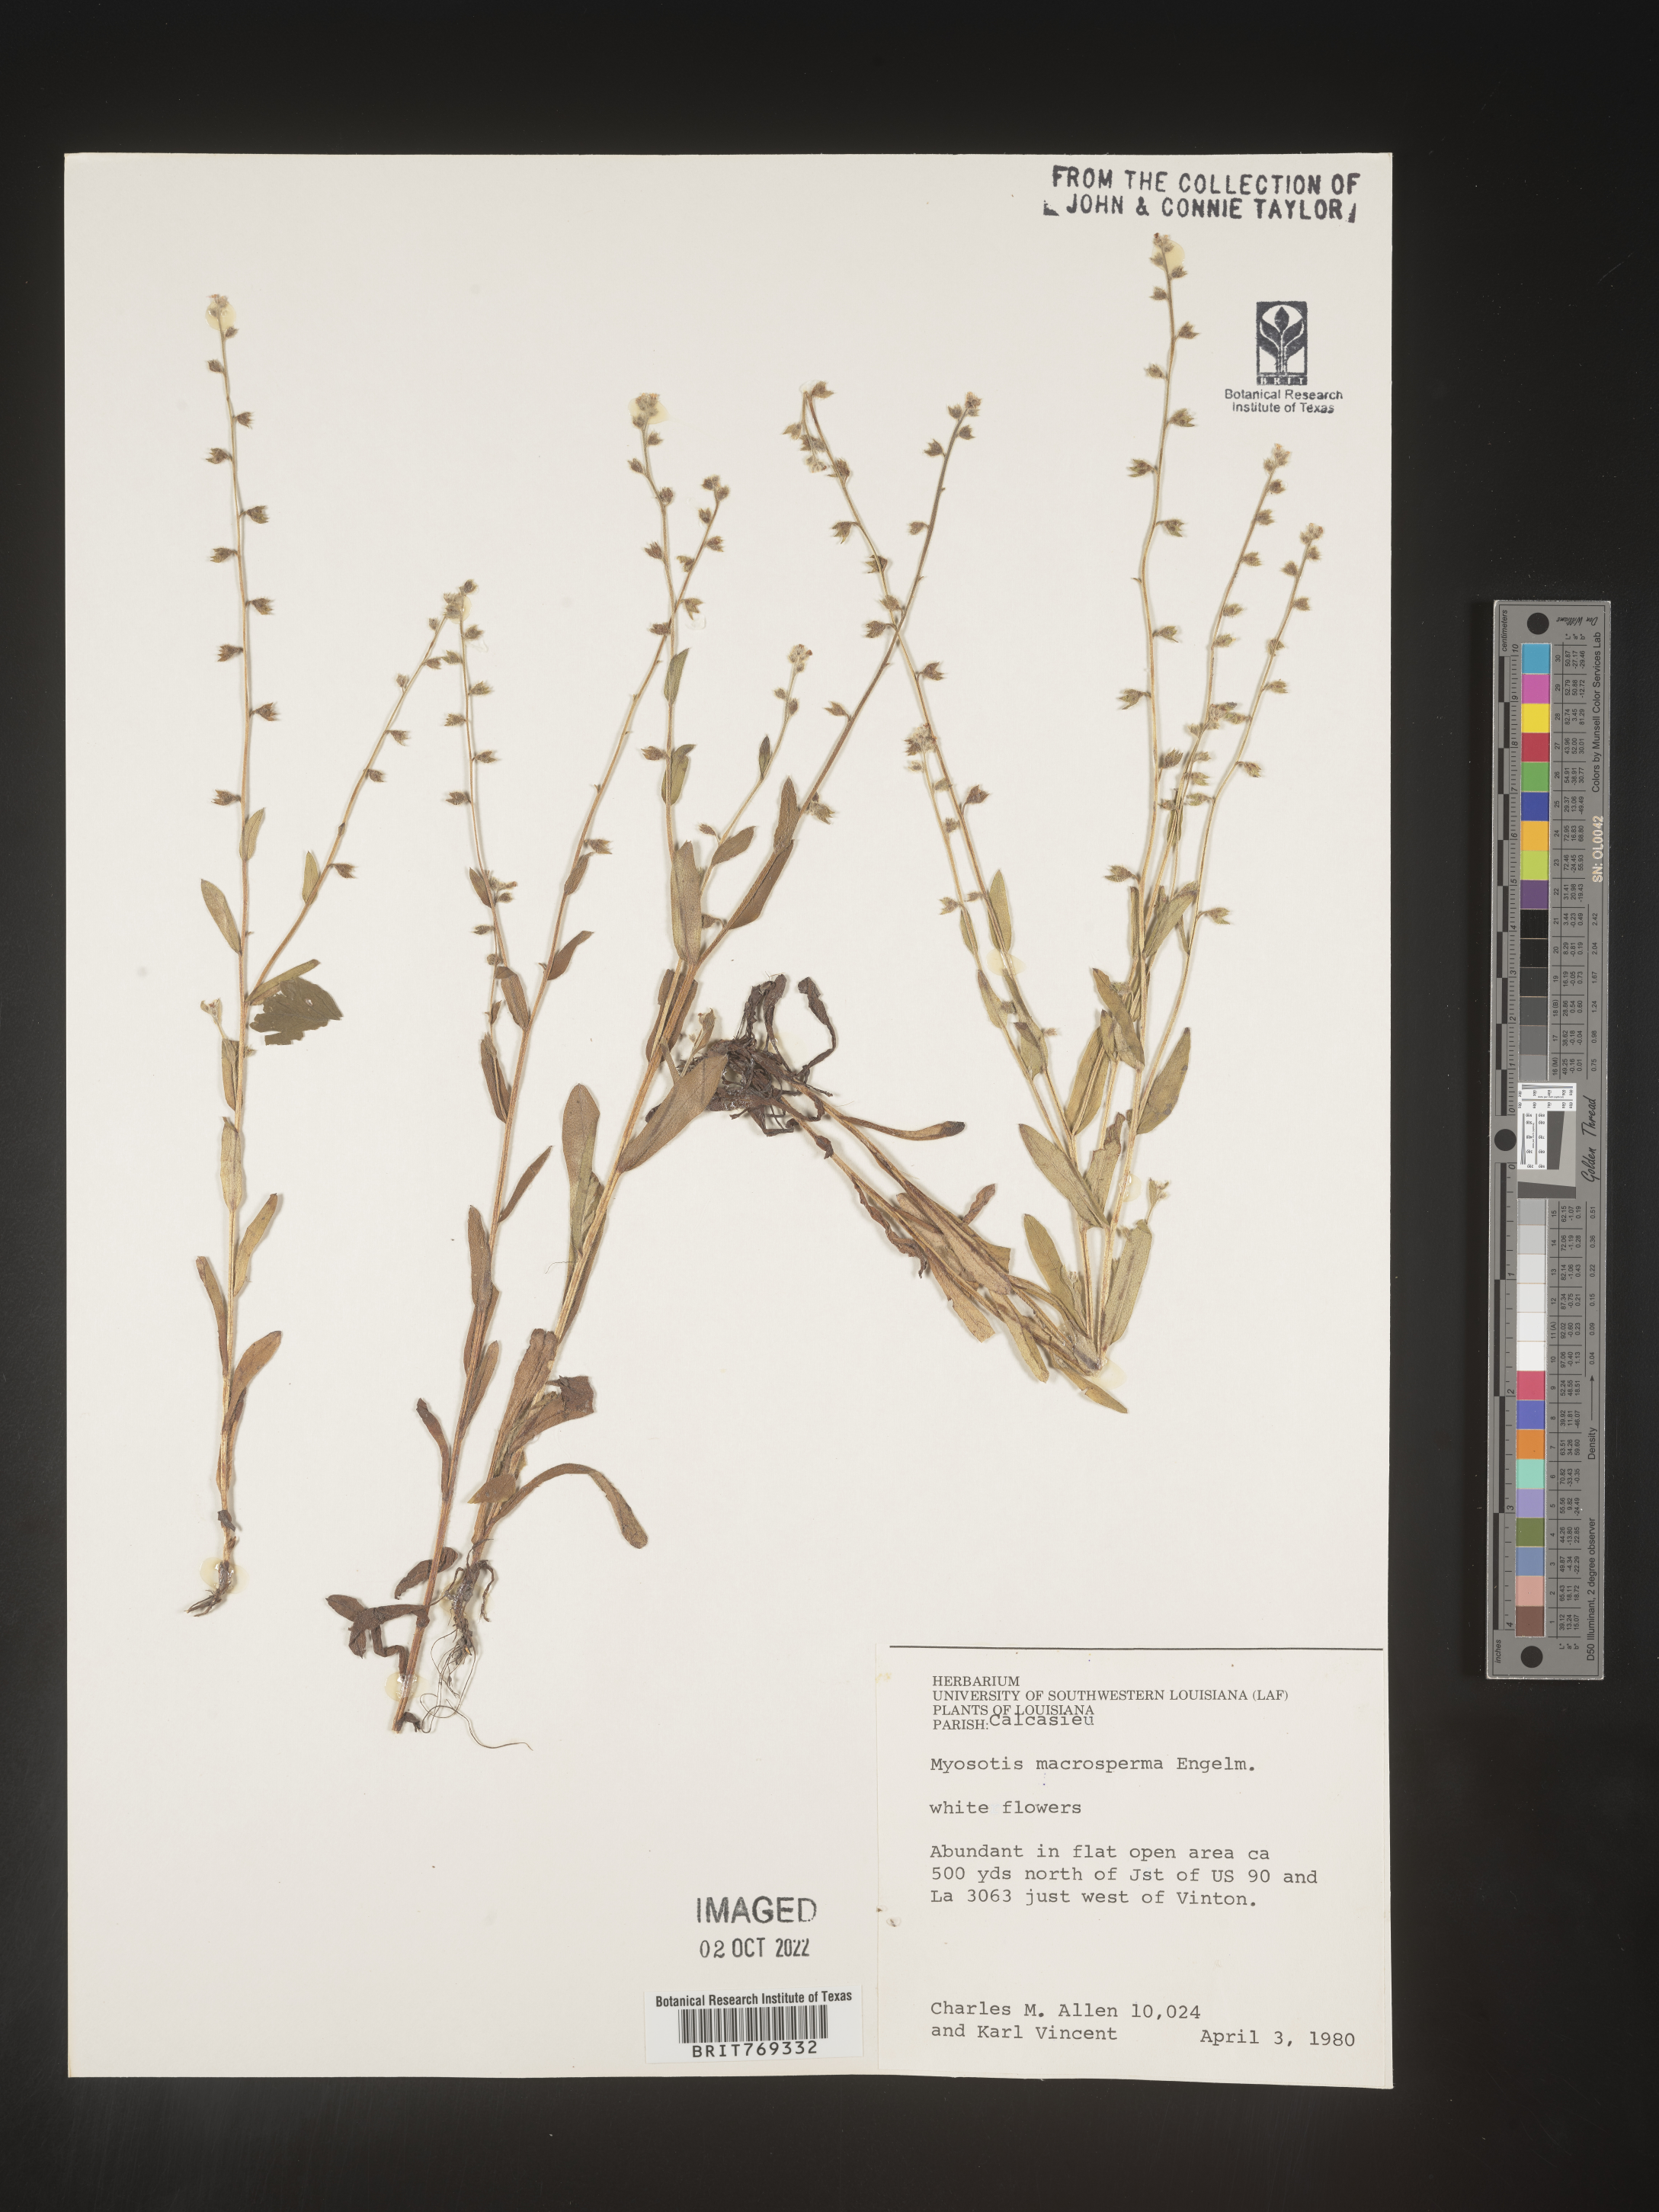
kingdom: Plantae
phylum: Tracheophyta
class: Magnoliopsida
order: Boraginales
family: Boraginaceae
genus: Myosotis
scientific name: Myosotis macrosperma
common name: Large-seed forget-me-not
